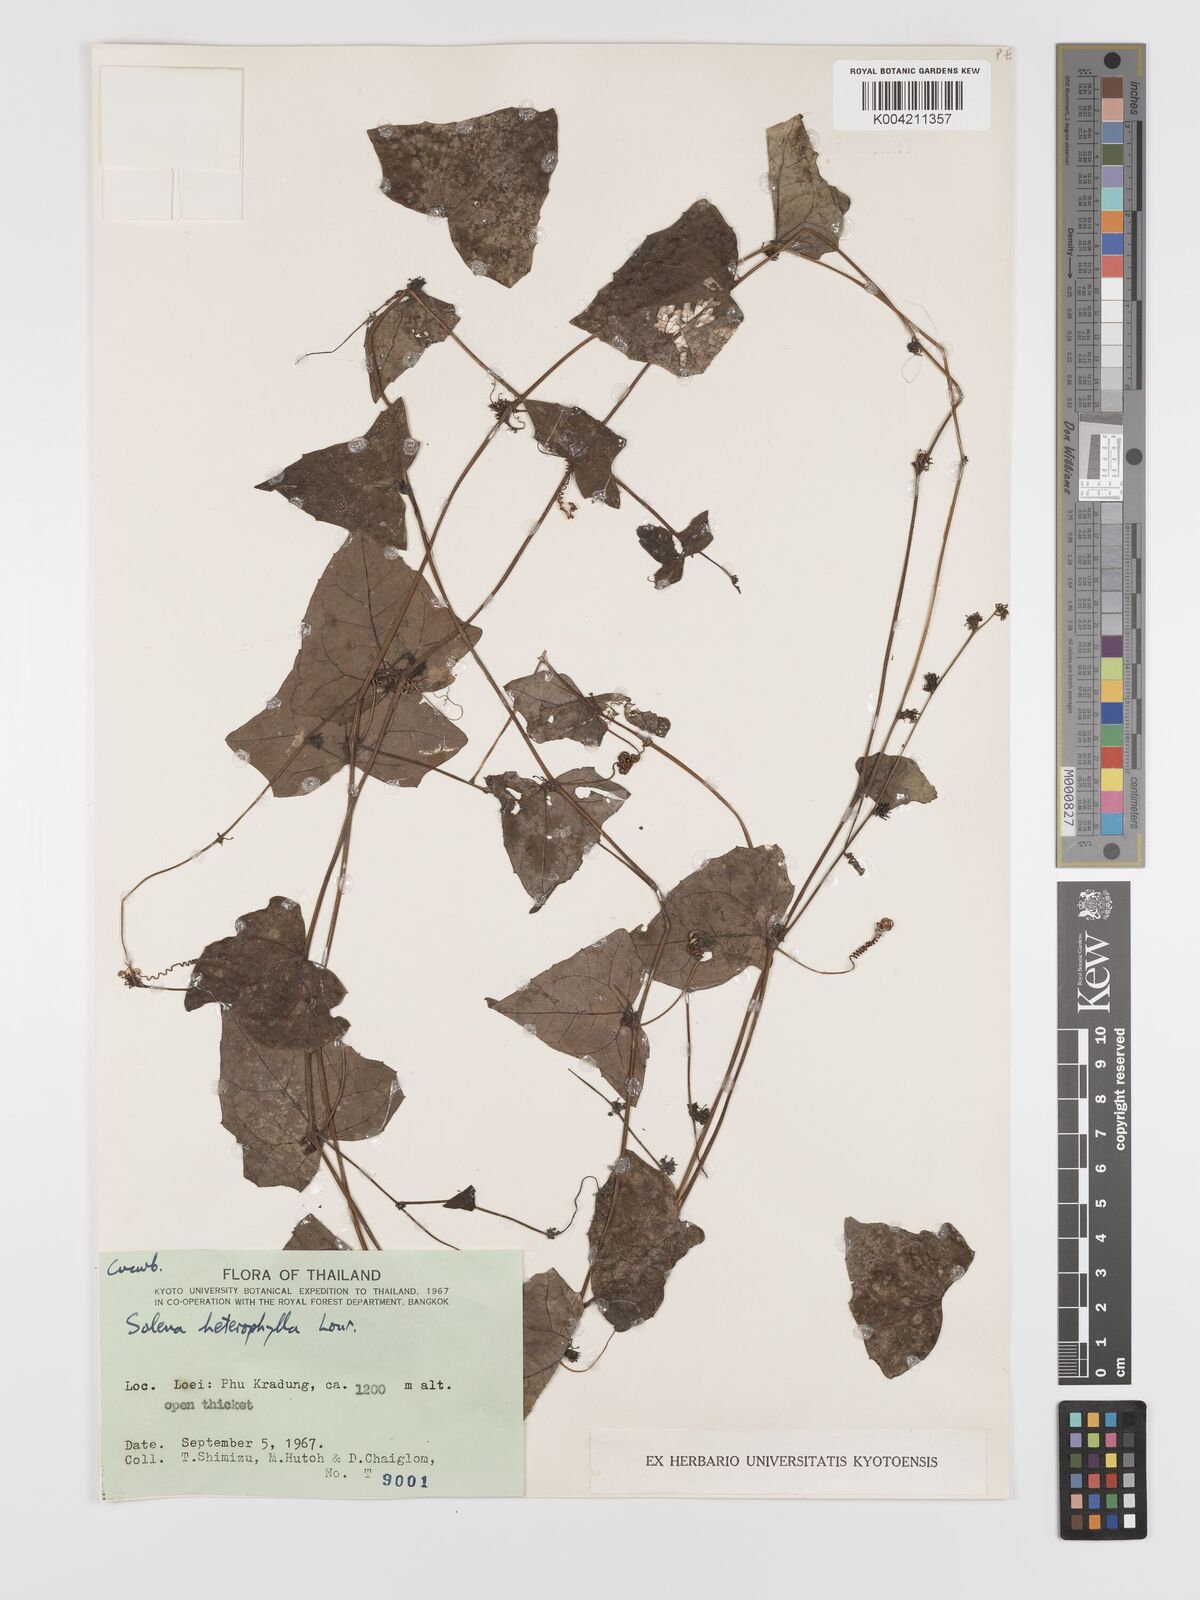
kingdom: Plantae
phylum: Tracheophyta
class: Magnoliopsida
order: Cucurbitales
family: Cucurbitaceae
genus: Solena
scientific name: Solena amplexicaulis
